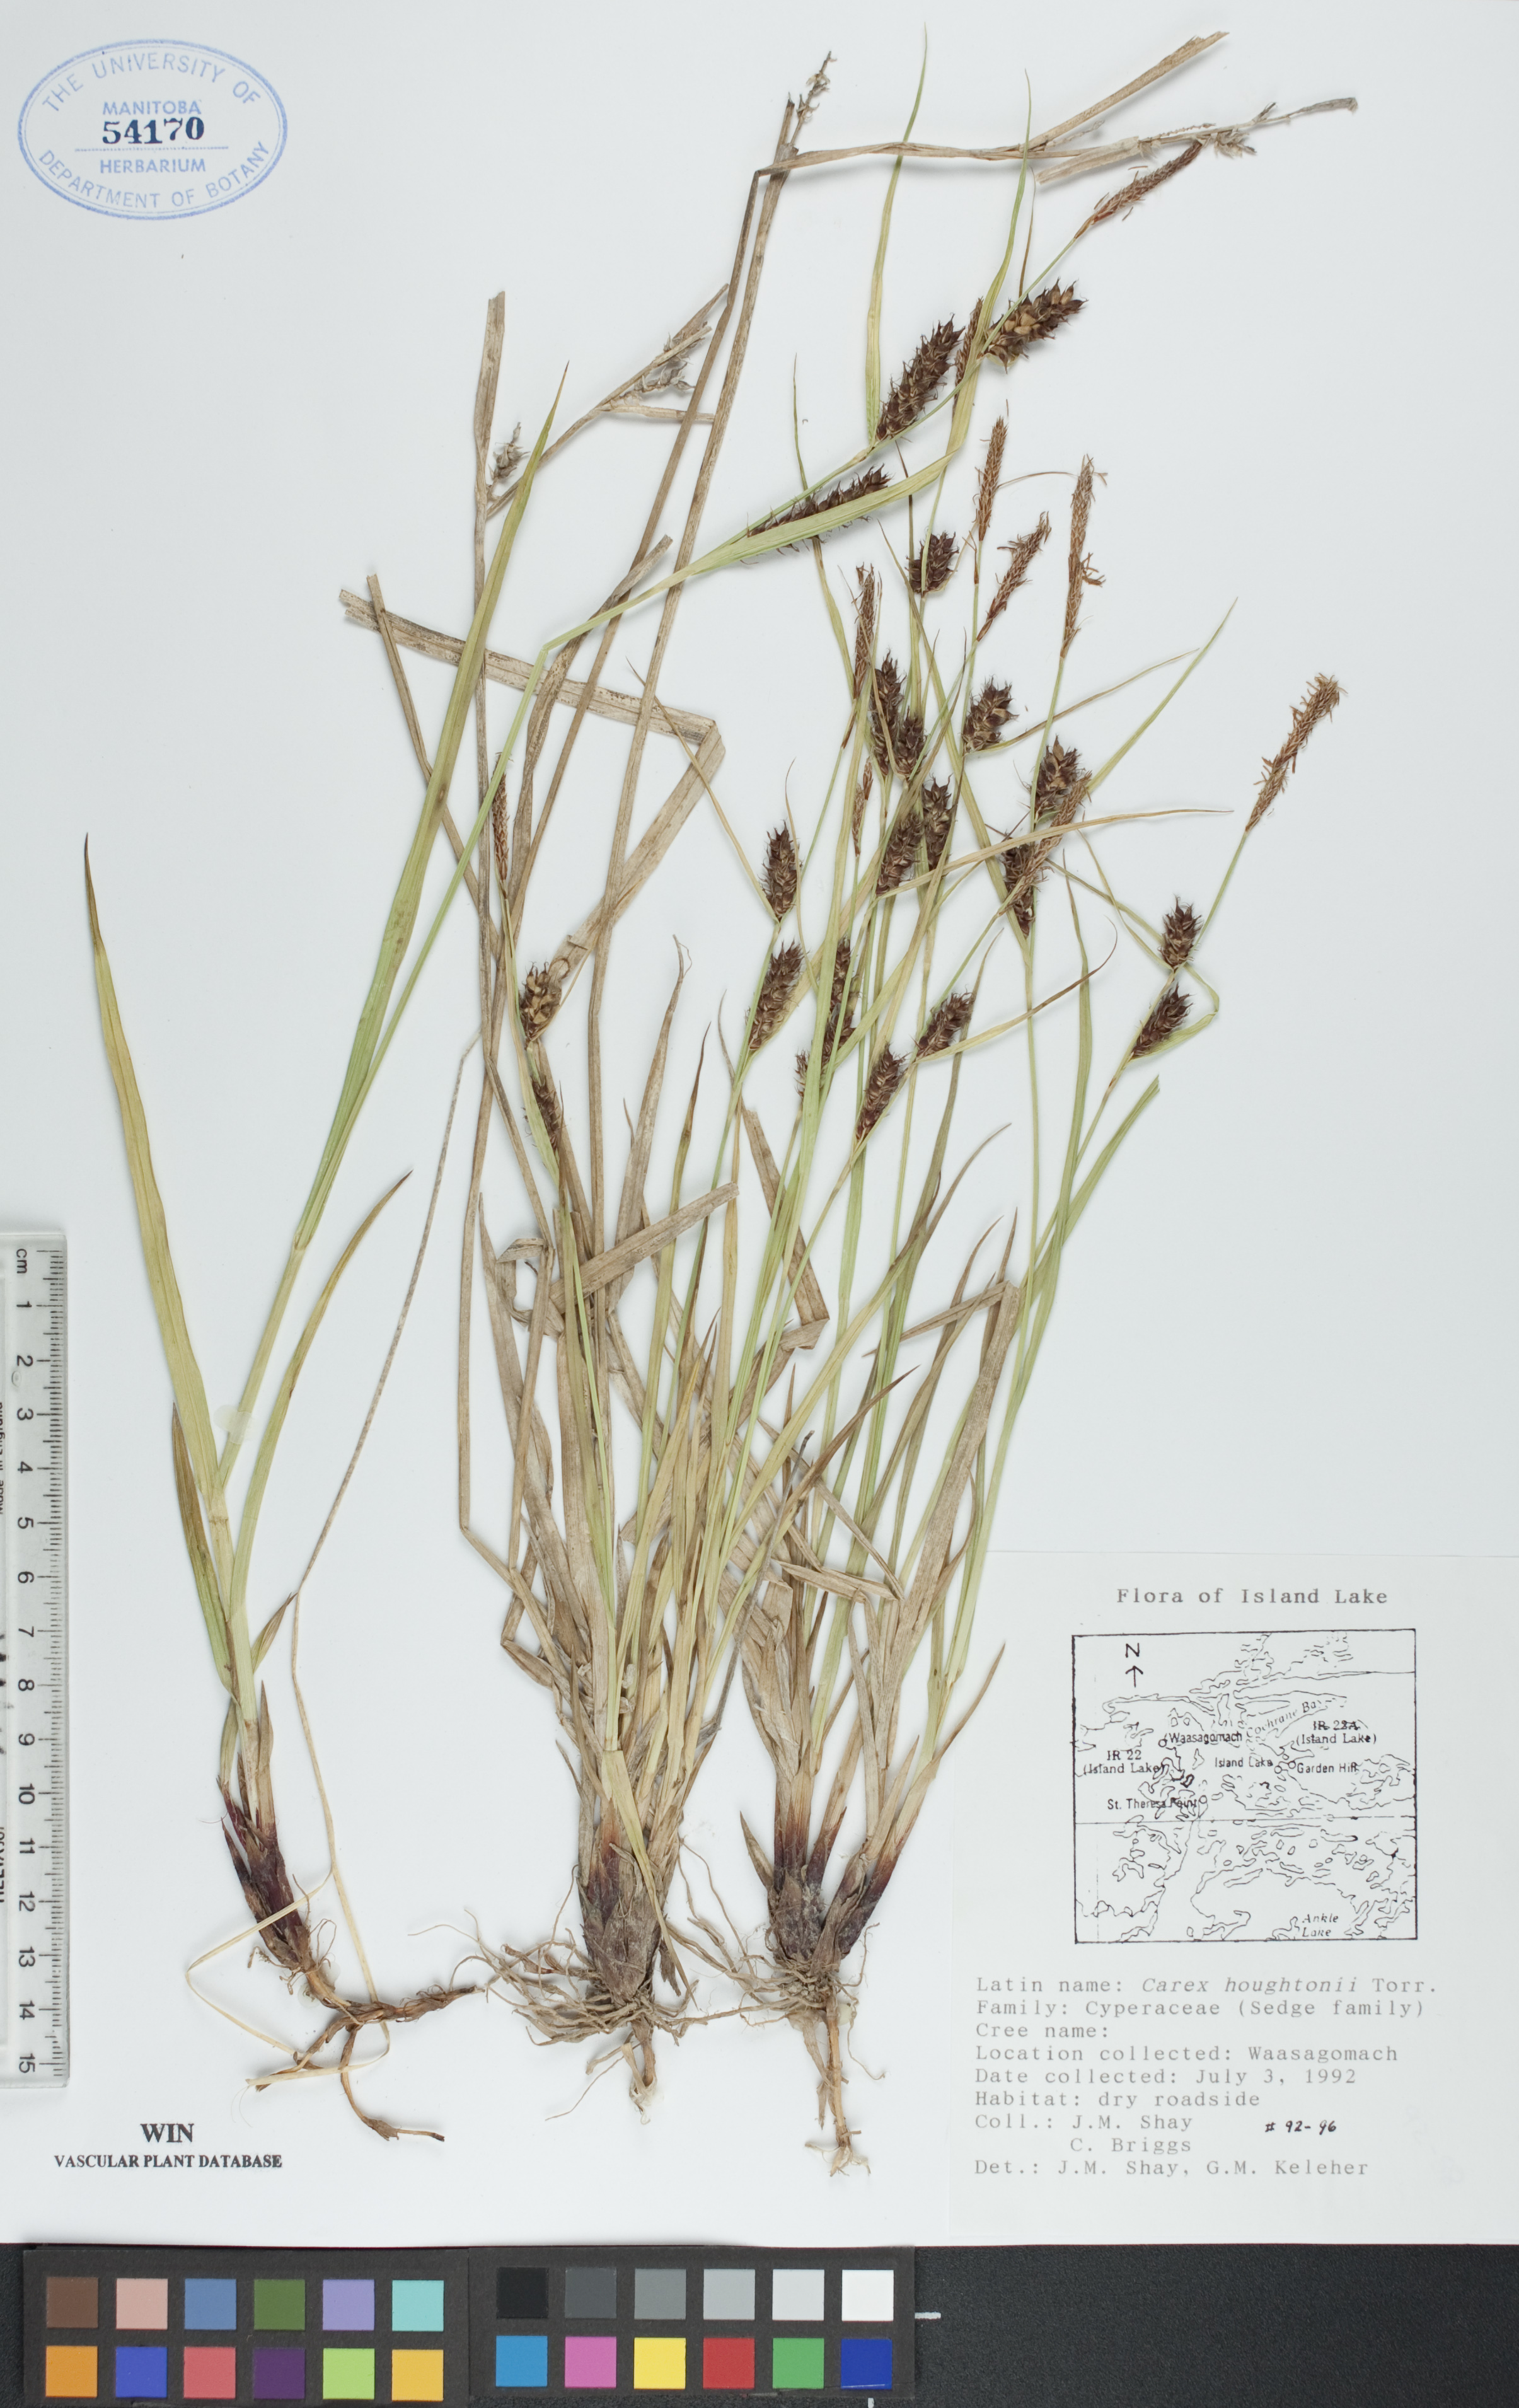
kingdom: Plantae
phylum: Tracheophyta
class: Liliopsida
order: Poales
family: Cyperaceae
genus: Carex
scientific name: Carex houghtoniana
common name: Houghton's sedge
